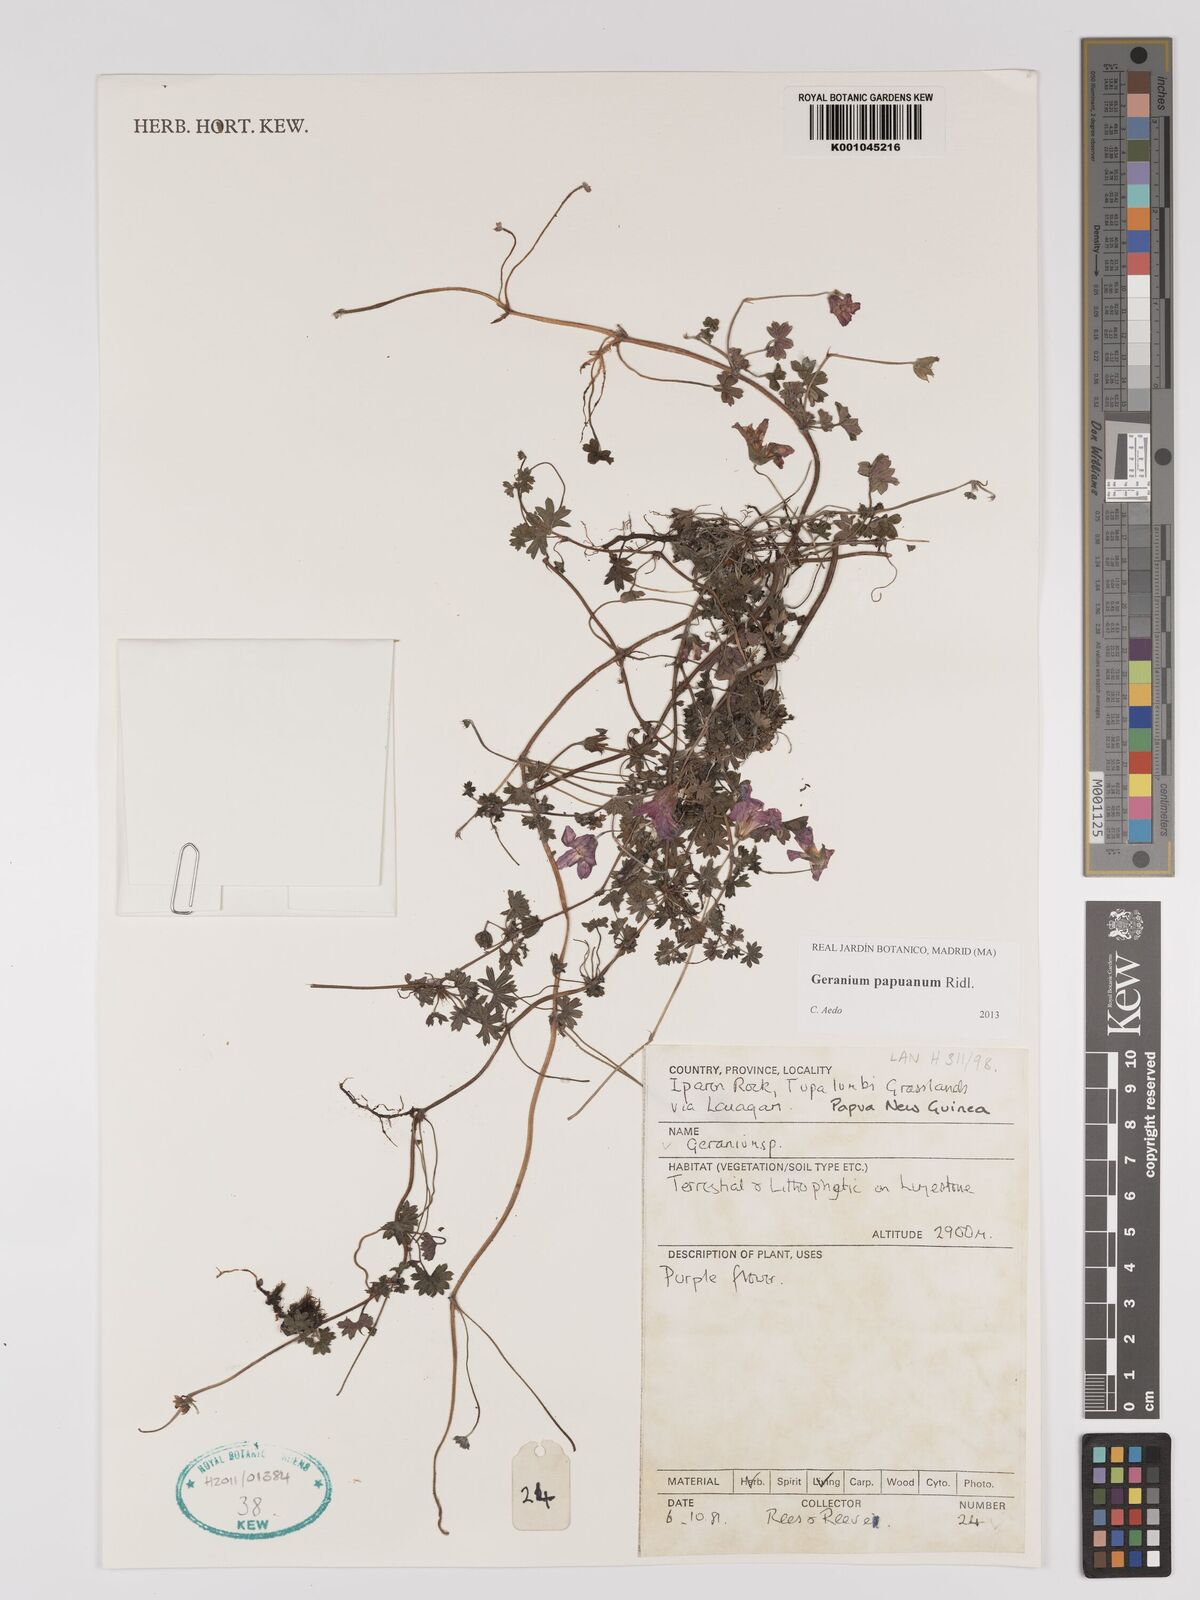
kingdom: Plantae
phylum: Tracheophyta
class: Magnoliopsida
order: Geraniales
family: Geraniaceae
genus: Geranium
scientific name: Geranium papuanum
